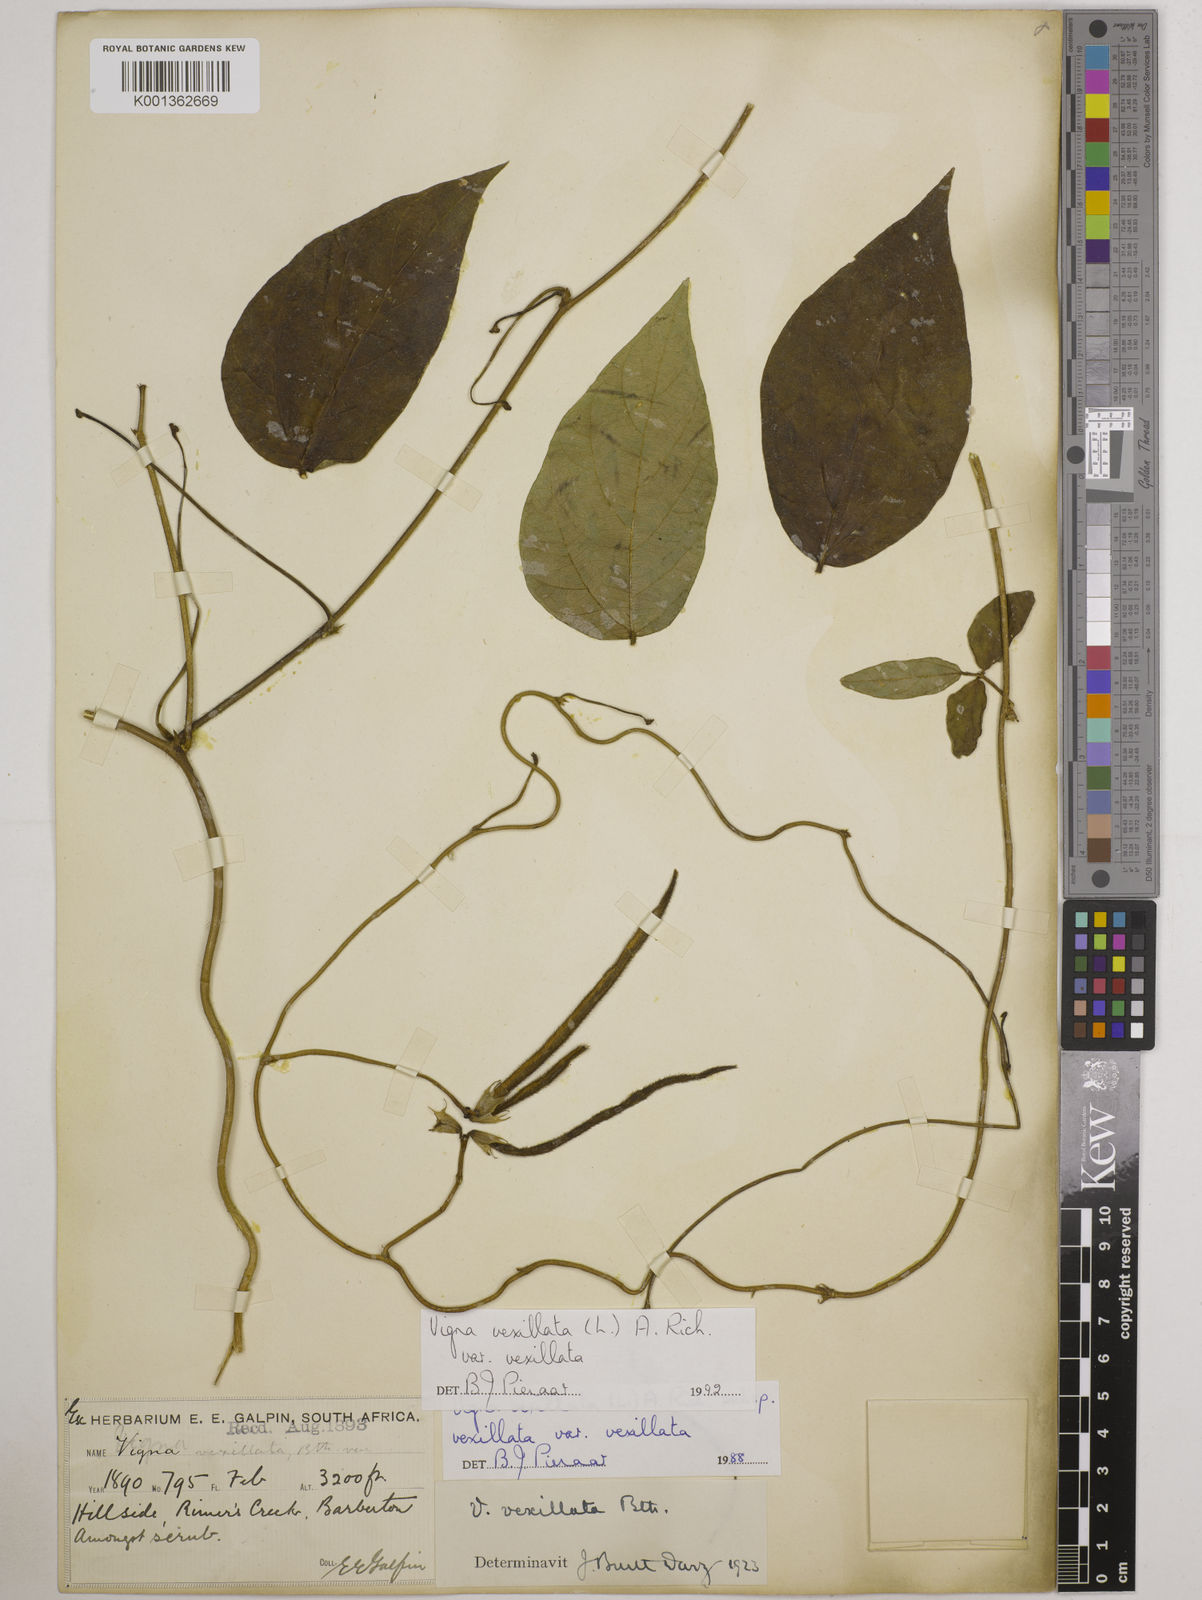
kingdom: Plantae
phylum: Tracheophyta
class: Magnoliopsida
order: Fabales
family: Fabaceae
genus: Vigna
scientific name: Vigna
